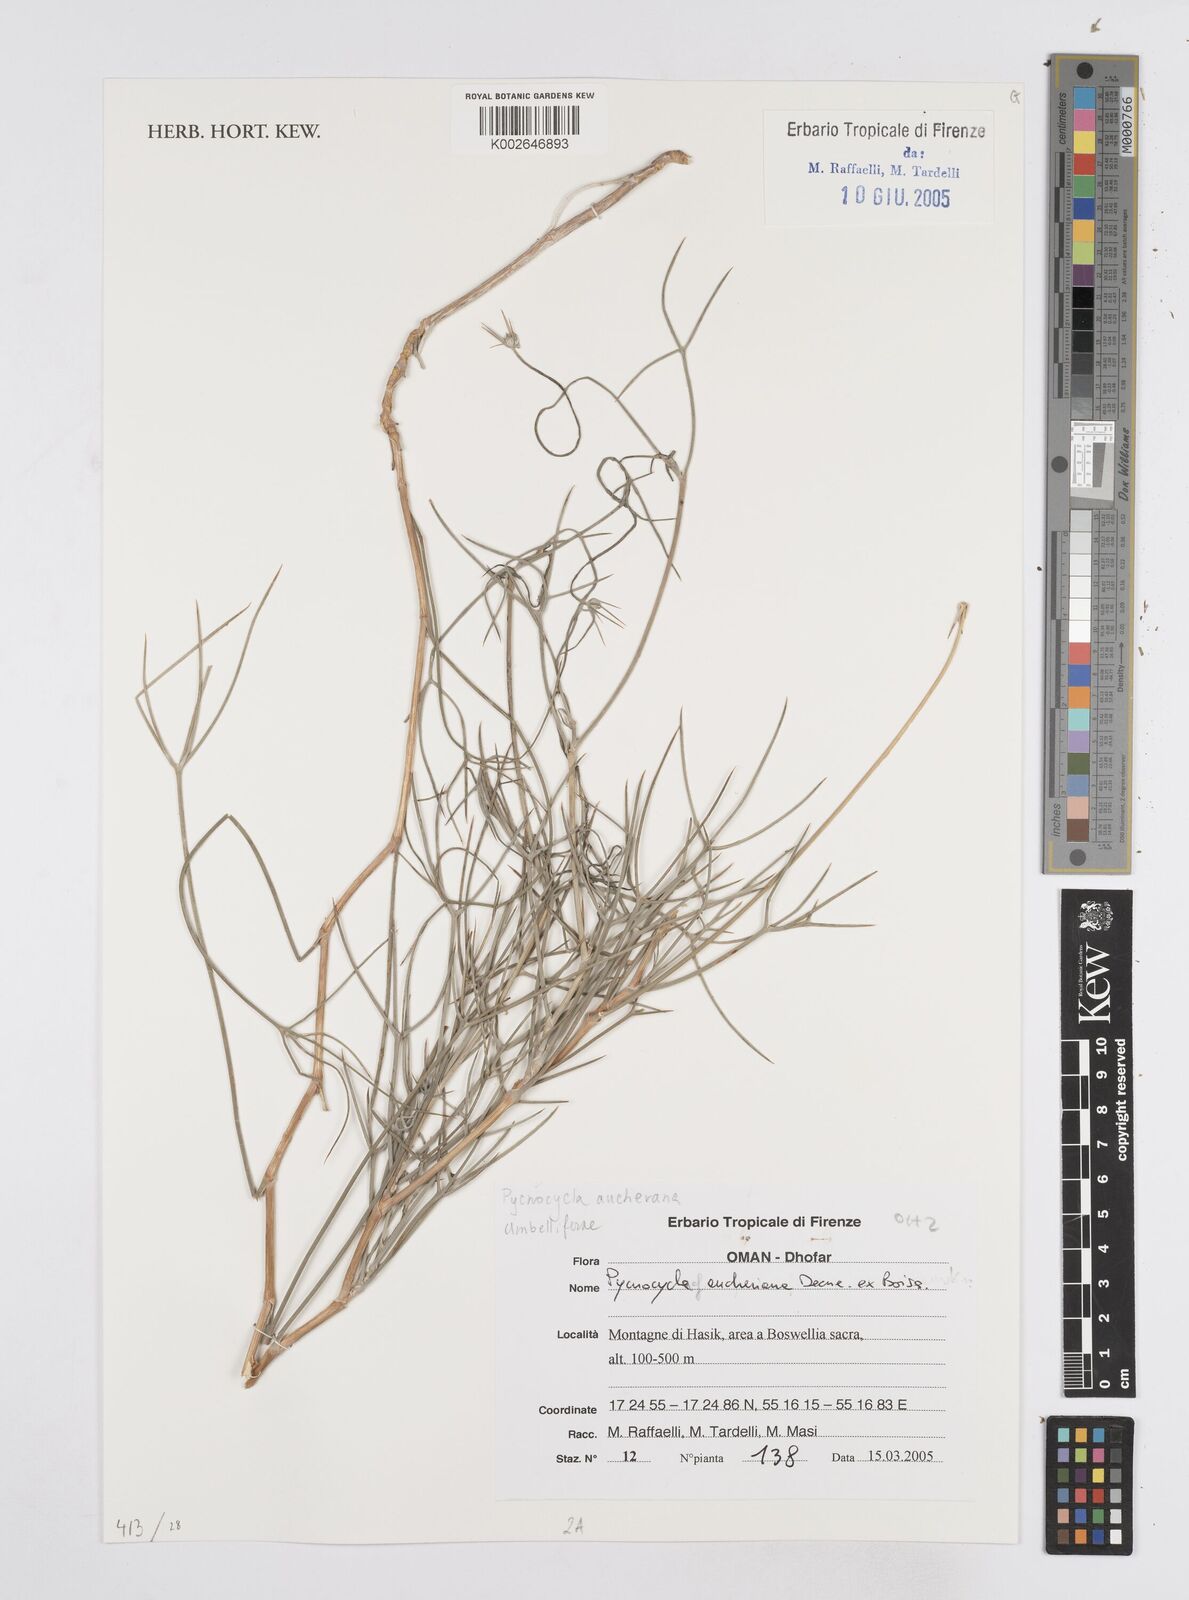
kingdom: Plantae
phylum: Tracheophyta
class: Magnoliopsida
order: Apiales
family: Apiaceae
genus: Pycnocycla
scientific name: Pycnocycla aucheriana
